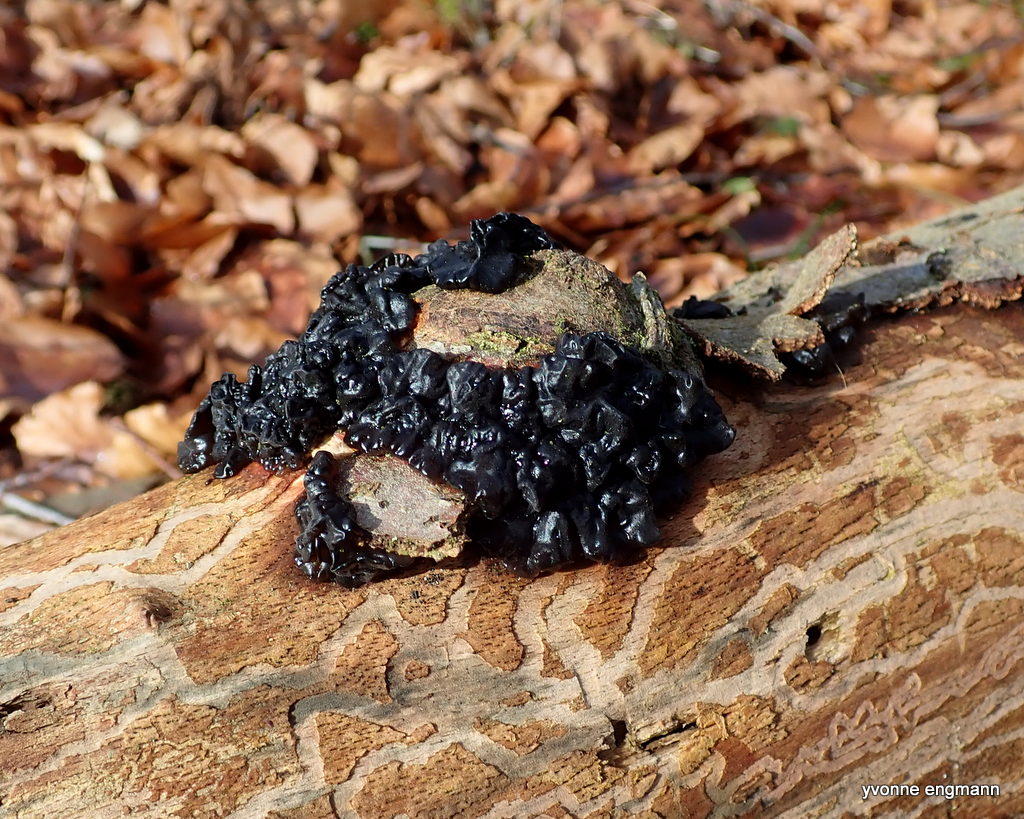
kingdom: Fungi
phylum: Basidiomycota
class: Agaricomycetes
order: Auriculariales
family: Auriculariaceae
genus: Exidia
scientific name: Exidia nigricans
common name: almindelig bævretop
